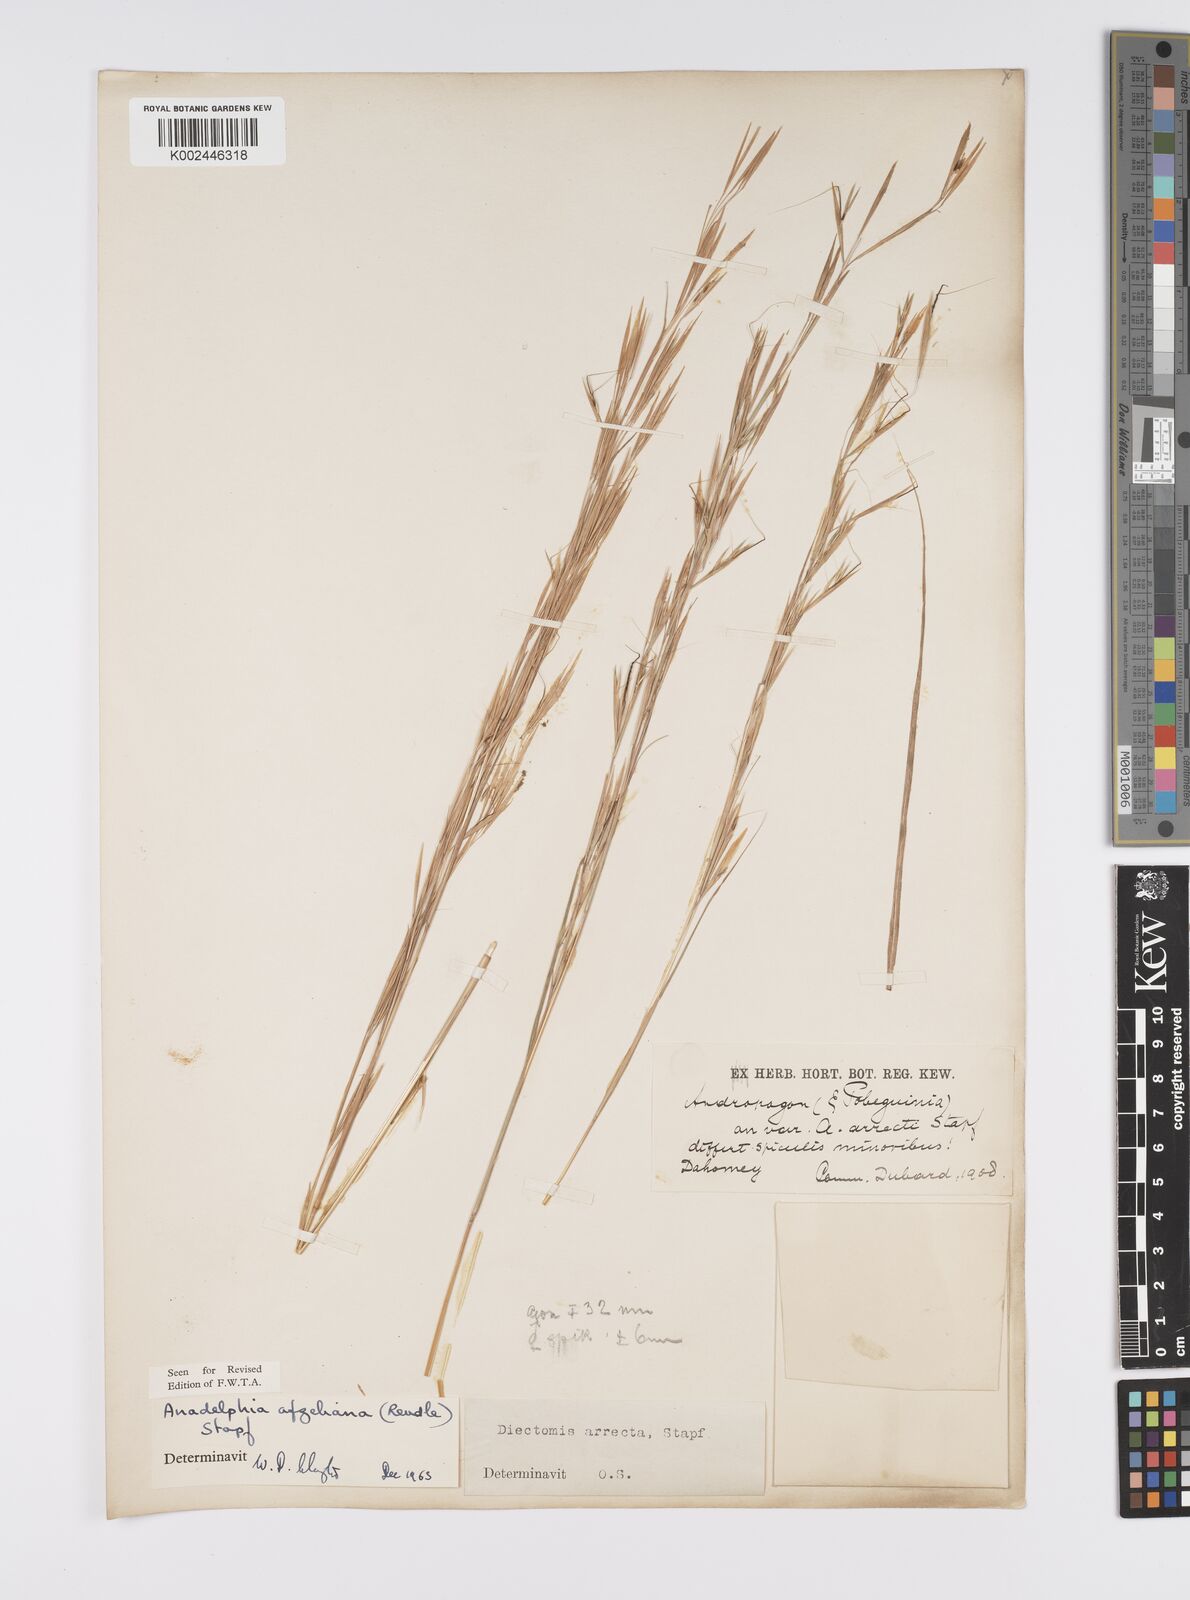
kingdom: Plantae
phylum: Tracheophyta
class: Liliopsida
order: Poales
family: Poaceae
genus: Anadelphia
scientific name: Anadelphia afzeliana
